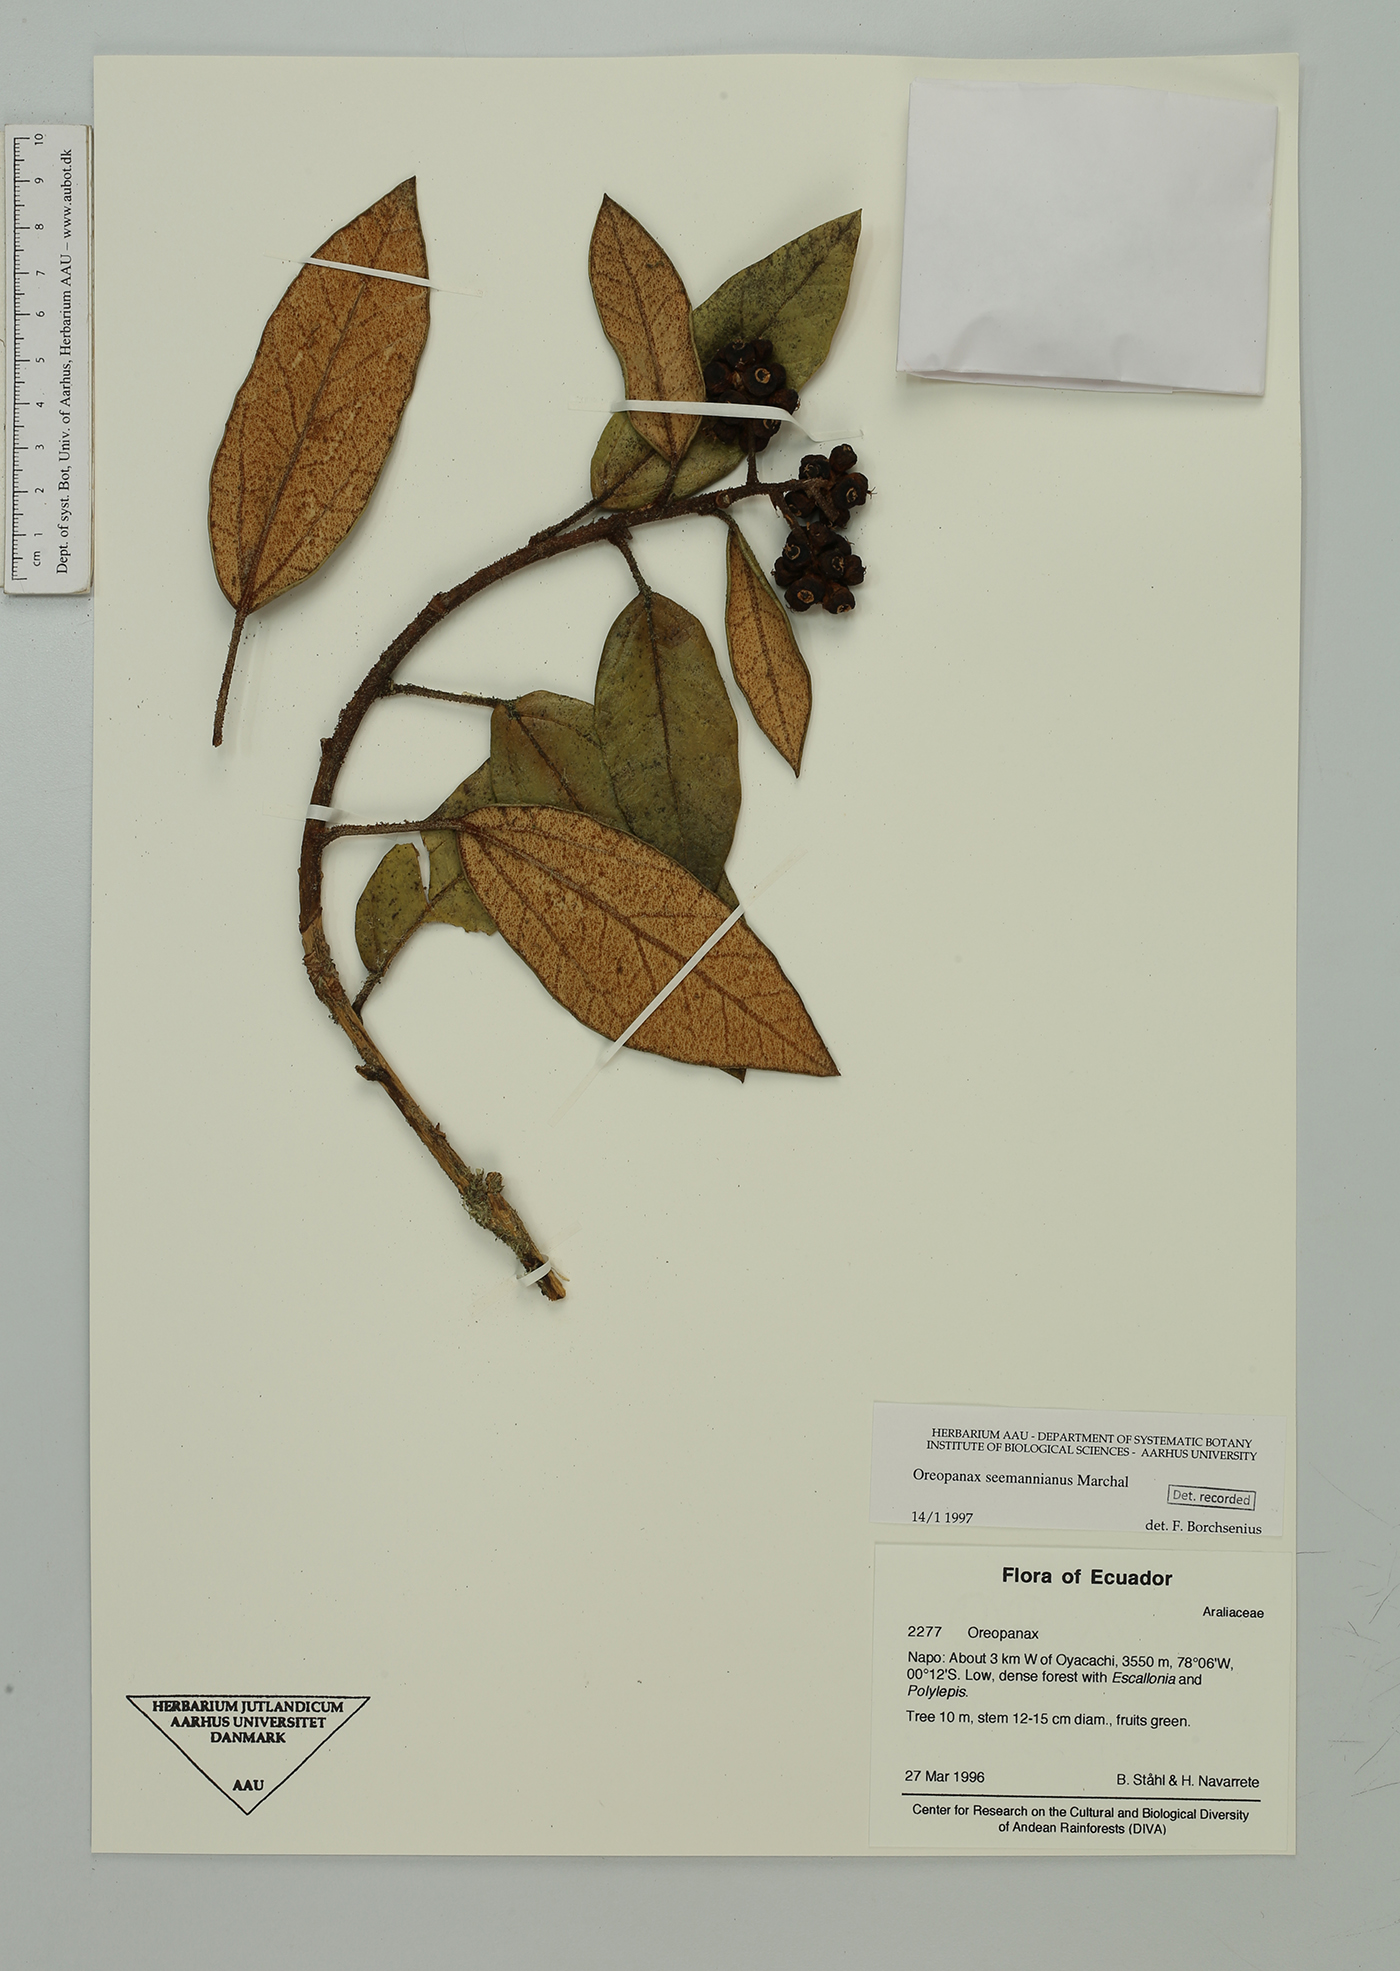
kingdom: Plantae
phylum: Tracheophyta
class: Magnoliopsida
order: Apiales
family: Araliaceae
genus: Oreopanax
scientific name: Oreopanax seemannianus
